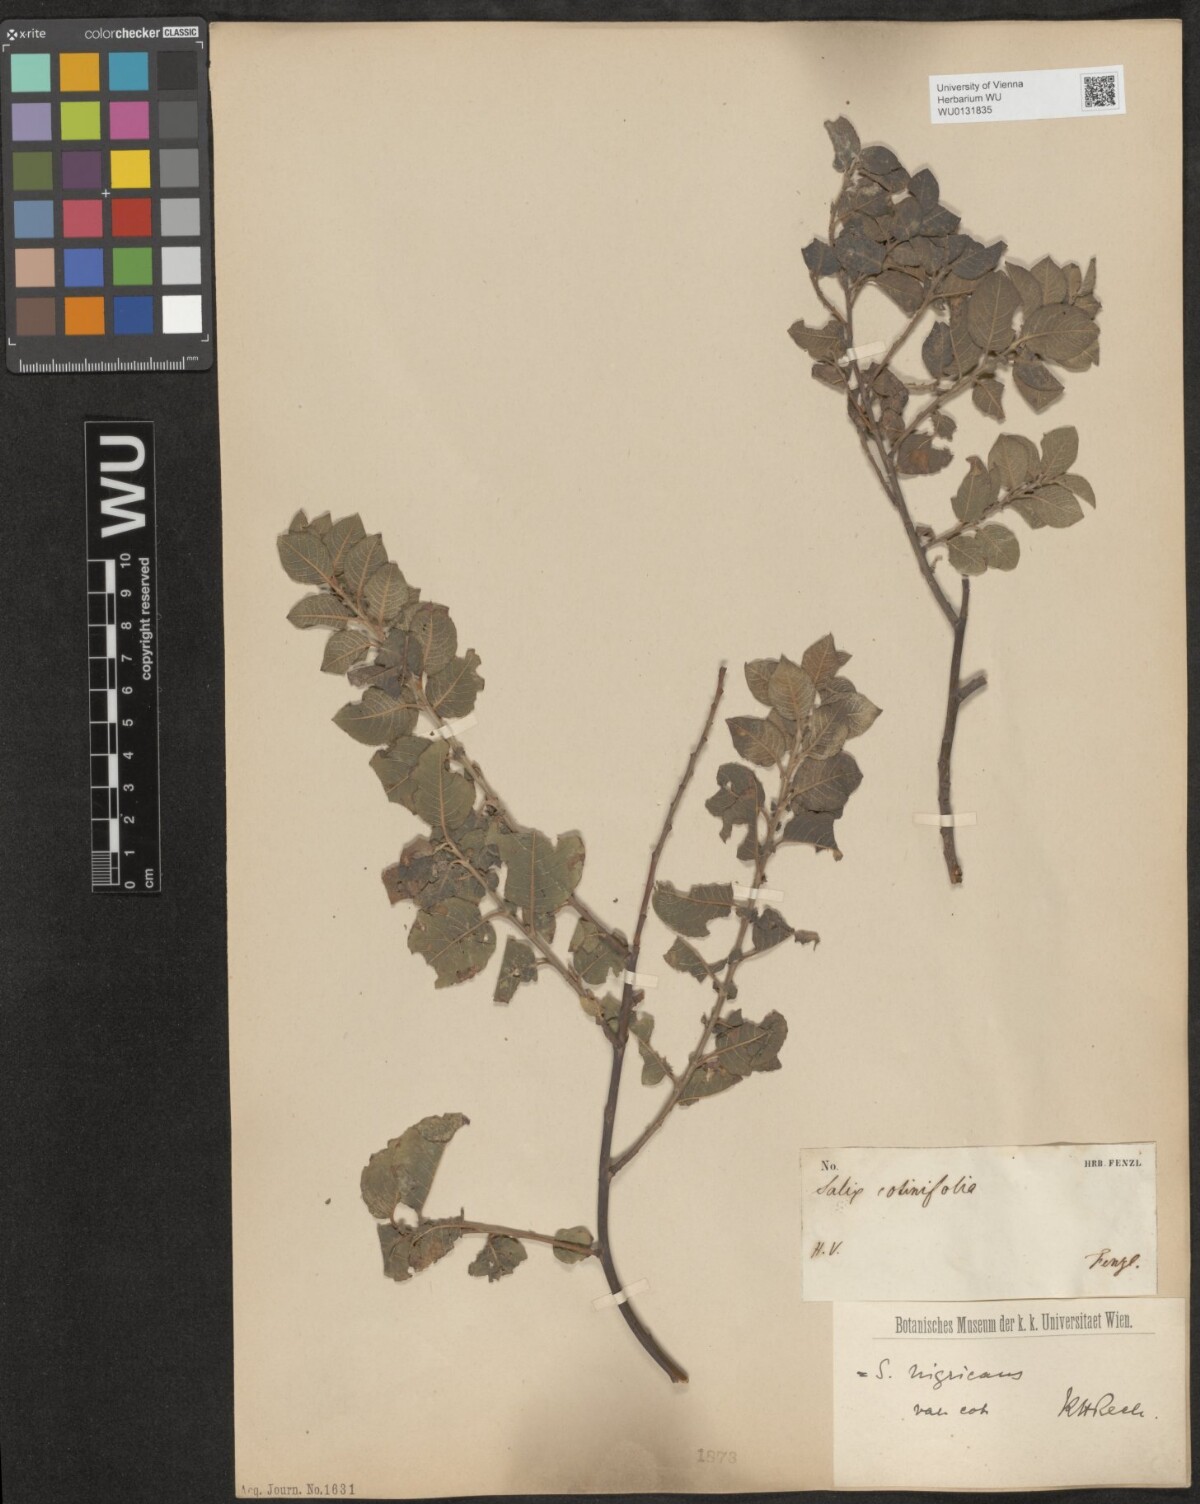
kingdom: Plantae
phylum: Tracheophyta
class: Magnoliopsida
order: Malpighiales
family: Salicaceae
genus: Salix
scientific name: Salix myrsinifolia
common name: Dark-leaved willow
